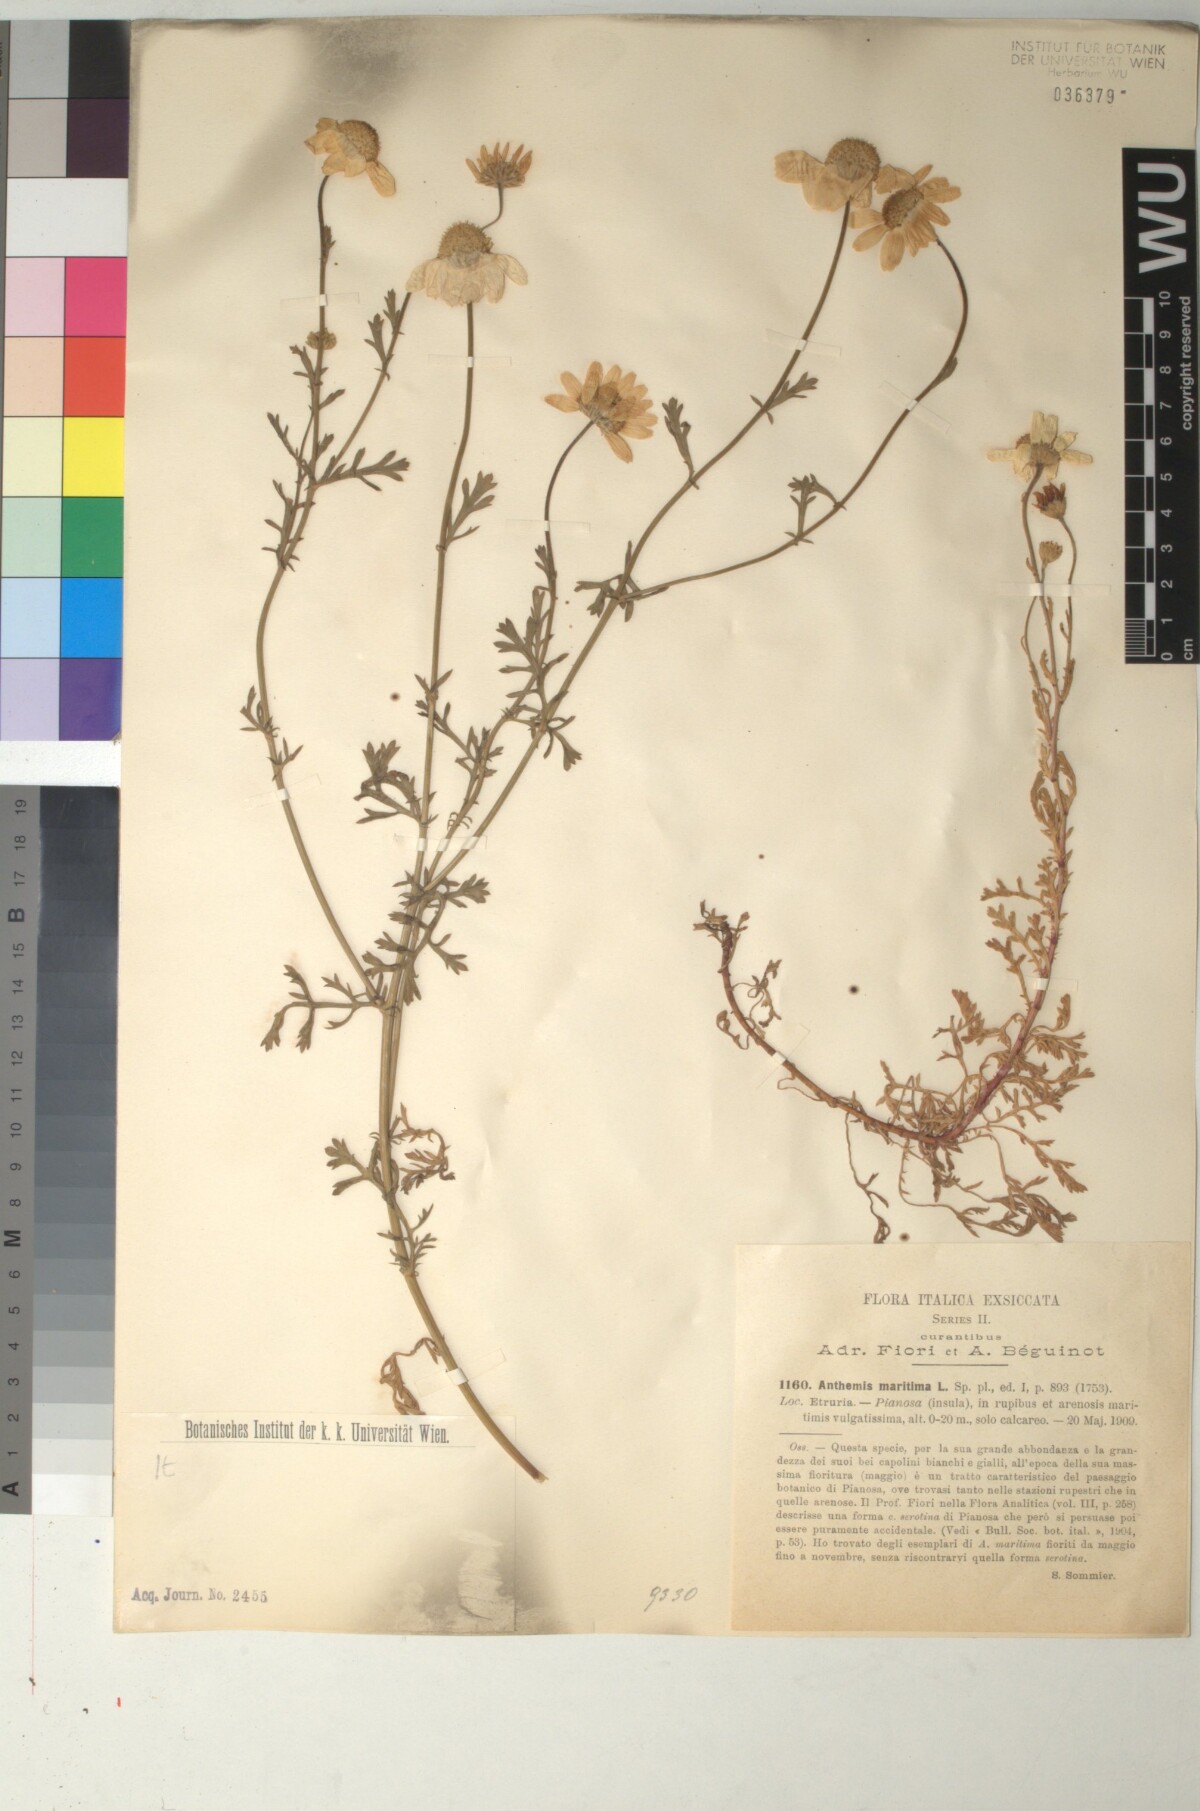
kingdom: Plantae
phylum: Tracheophyta
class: Magnoliopsida
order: Asterales
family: Asteraceae
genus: Anthemis
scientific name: Anthemis maritima
